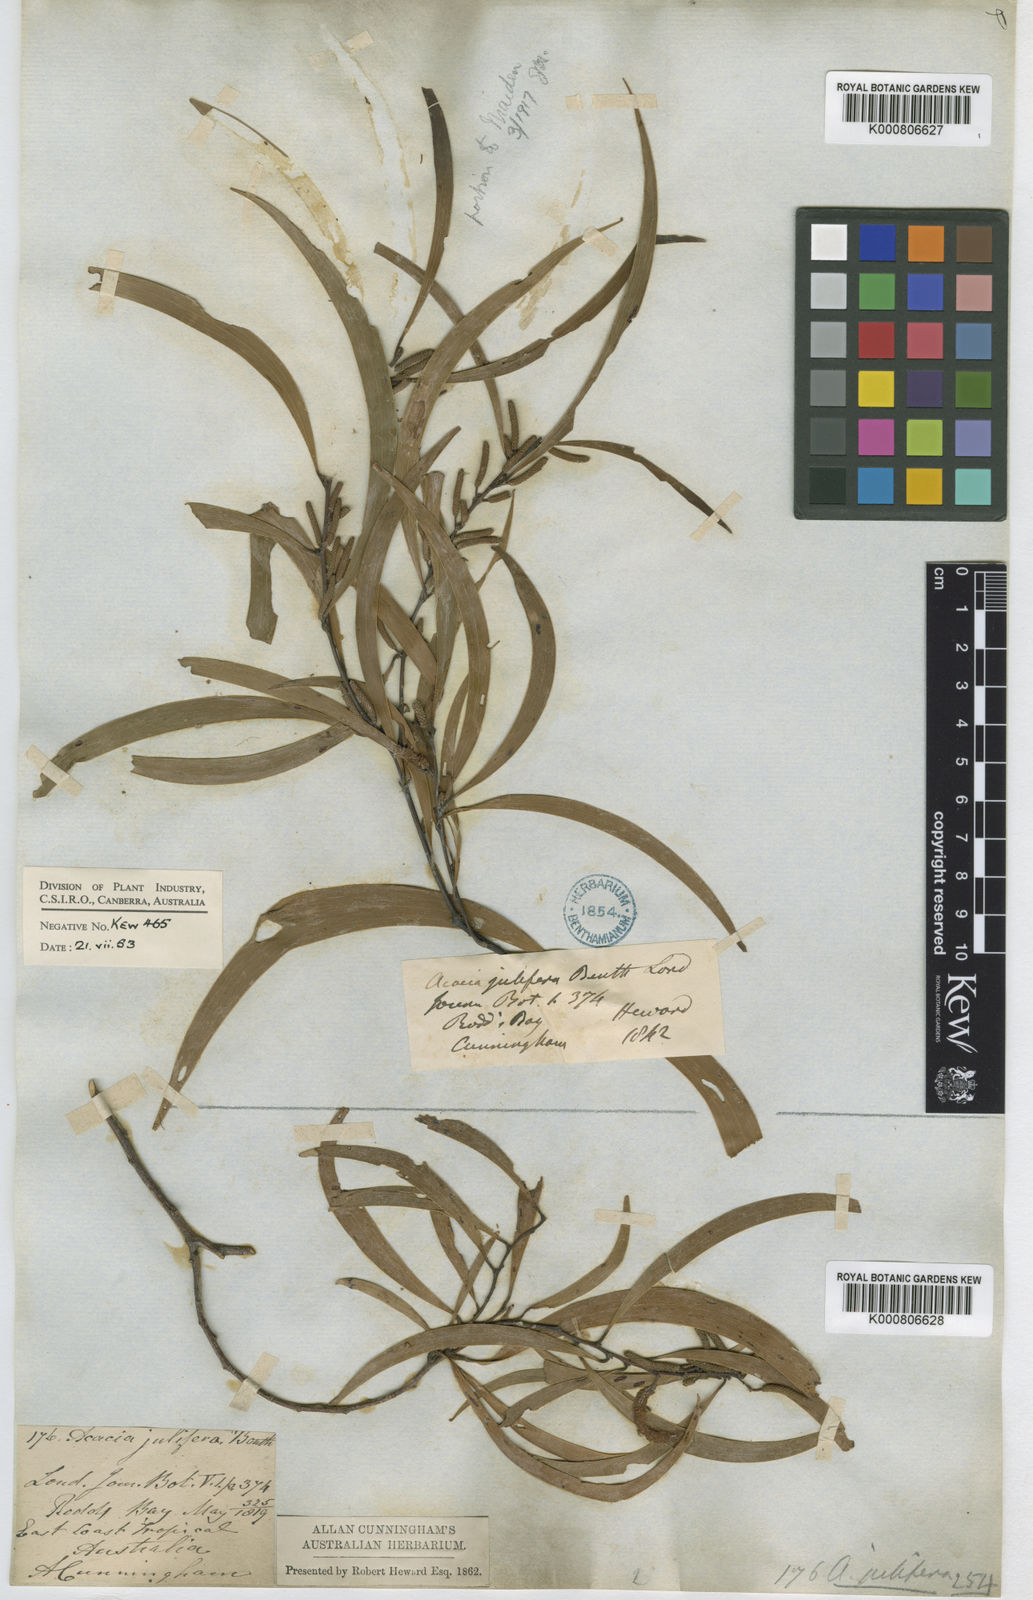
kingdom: Plantae
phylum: Tracheophyta
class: Magnoliopsida
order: Fabales
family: Fabaceae
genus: Acacia
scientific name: Acacia julifera
